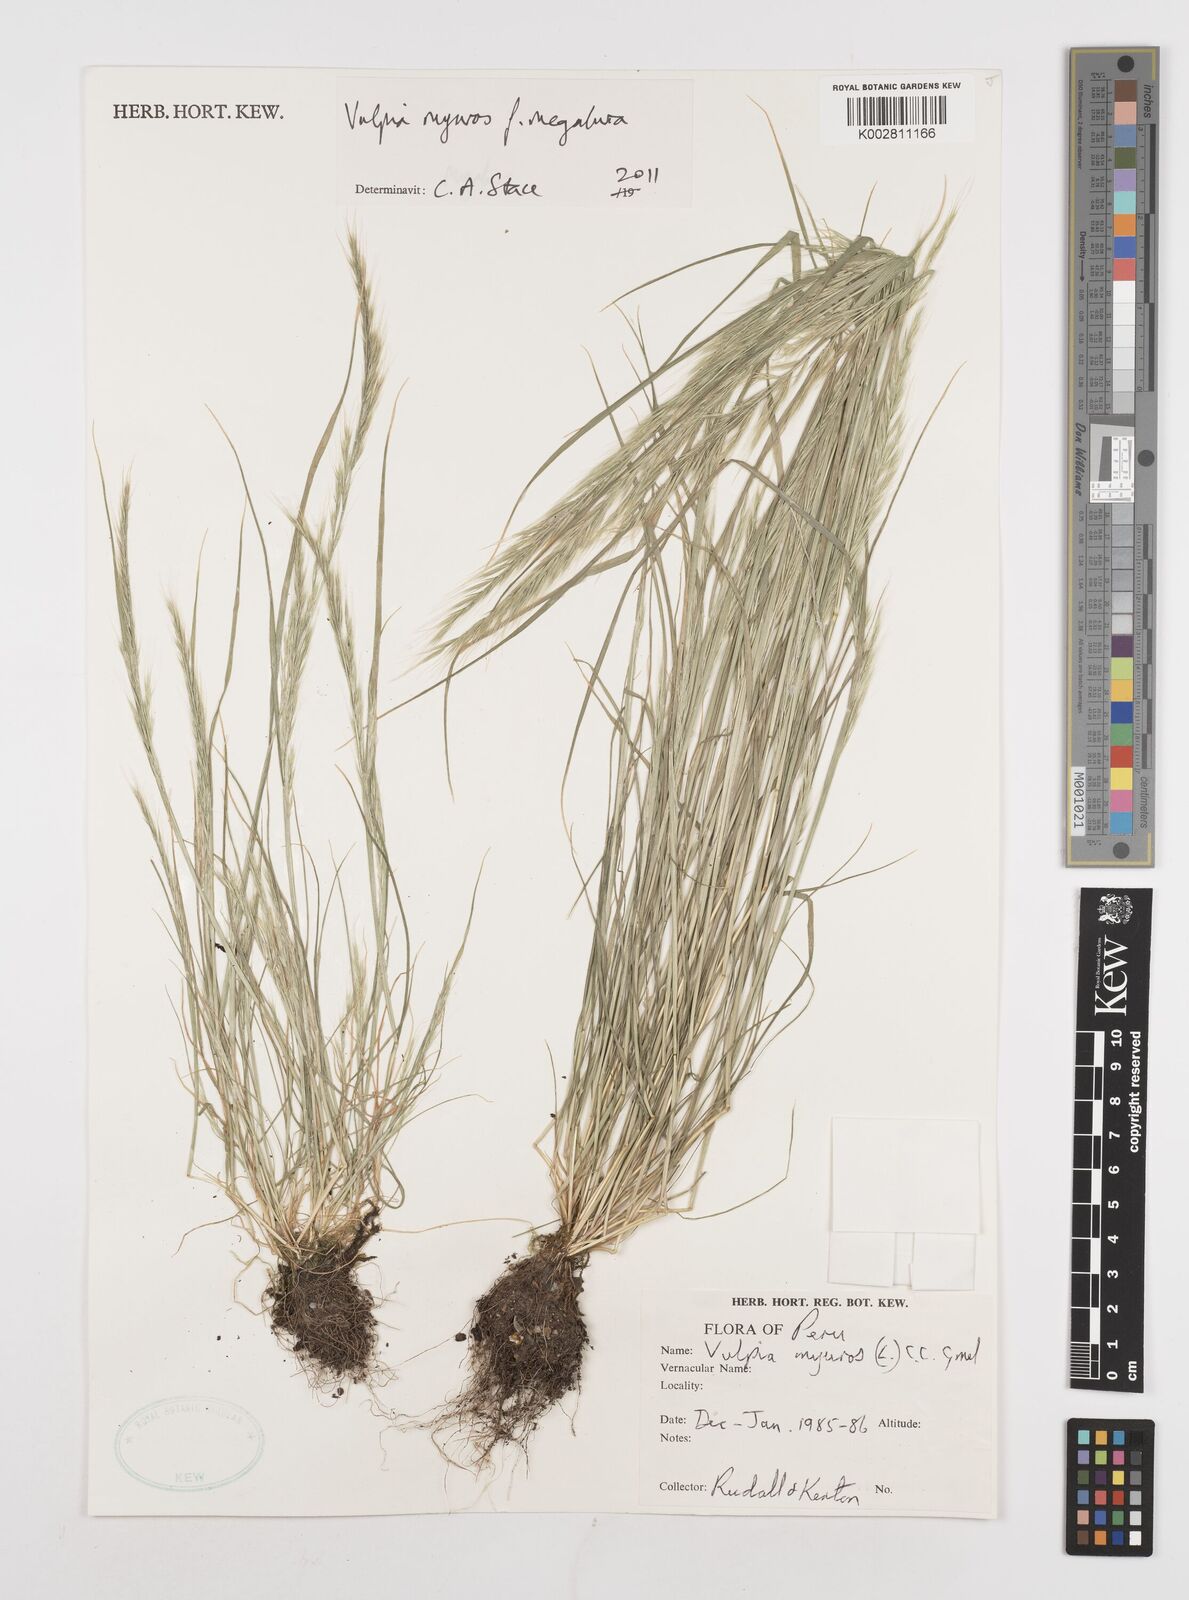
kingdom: Plantae
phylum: Tracheophyta
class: Liliopsida
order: Poales
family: Poaceae
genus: Festuca
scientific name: Festuca myuros
